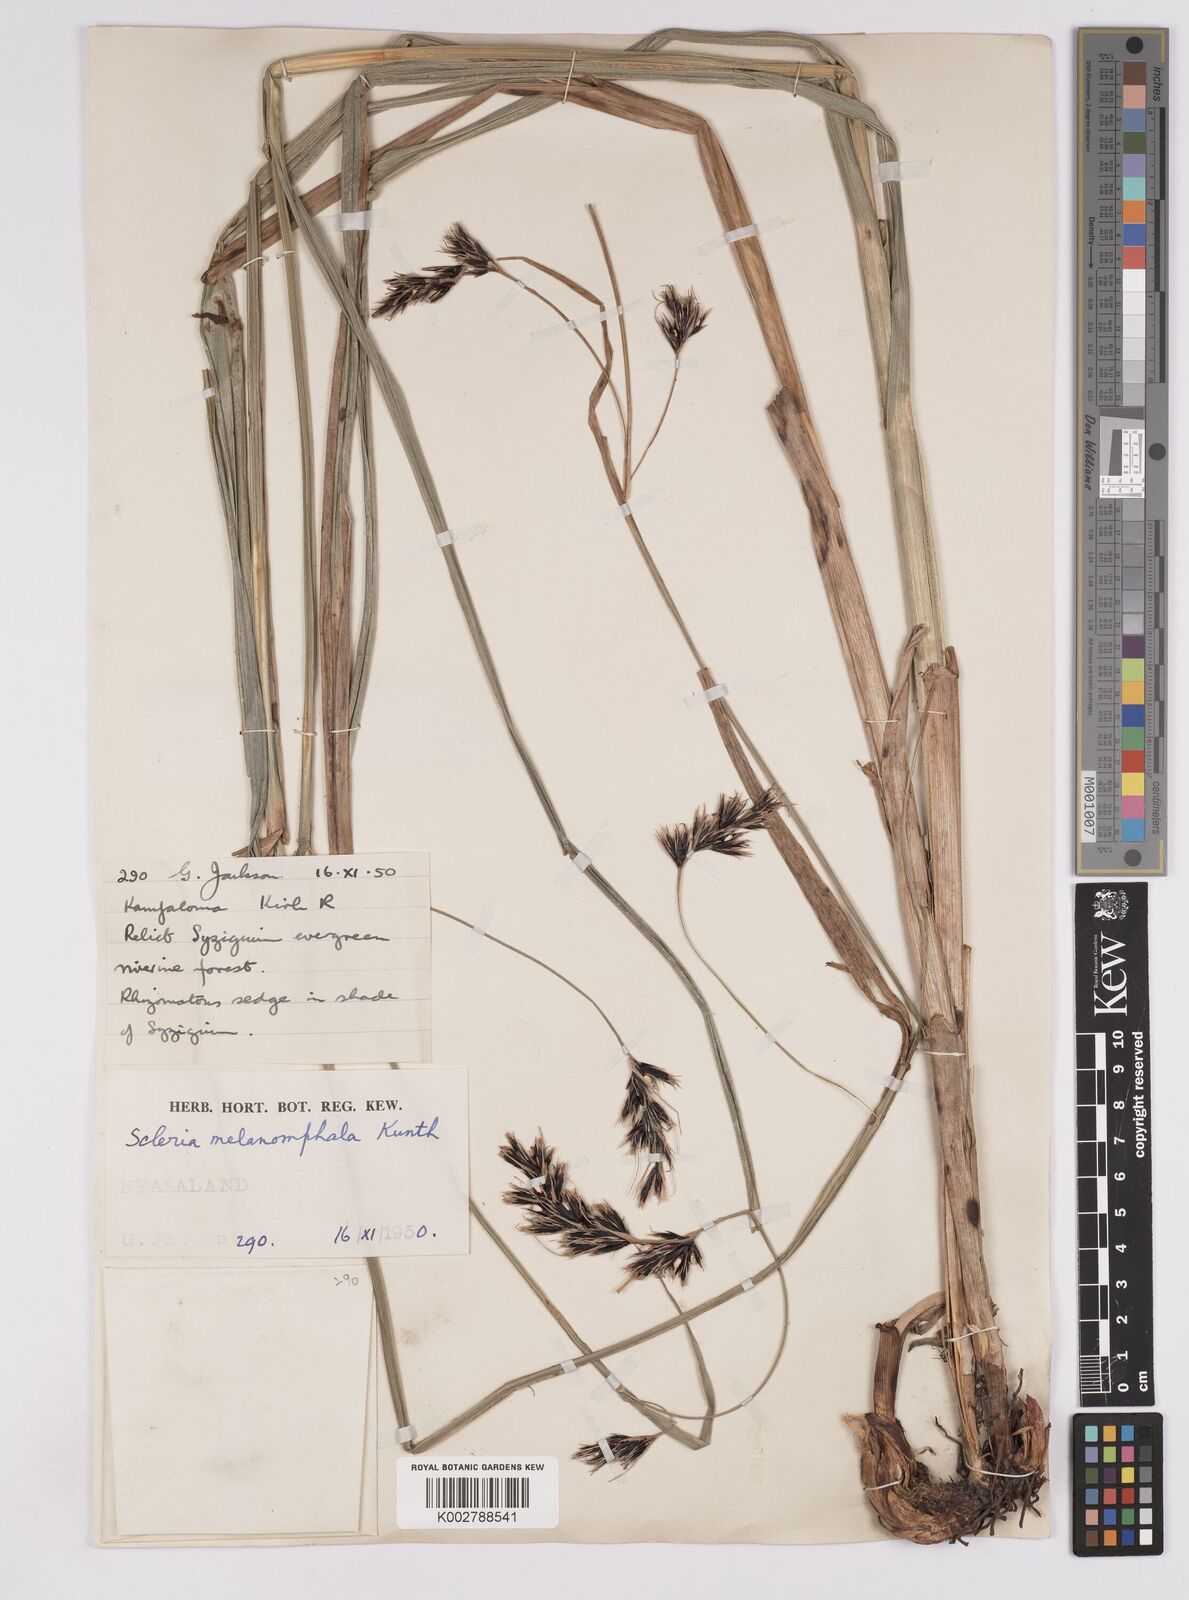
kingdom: Plantae
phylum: Tracheophyta
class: Liliopsida
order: Poales
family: Cyperaceae
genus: Scleria
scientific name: Scleria melanomphala
